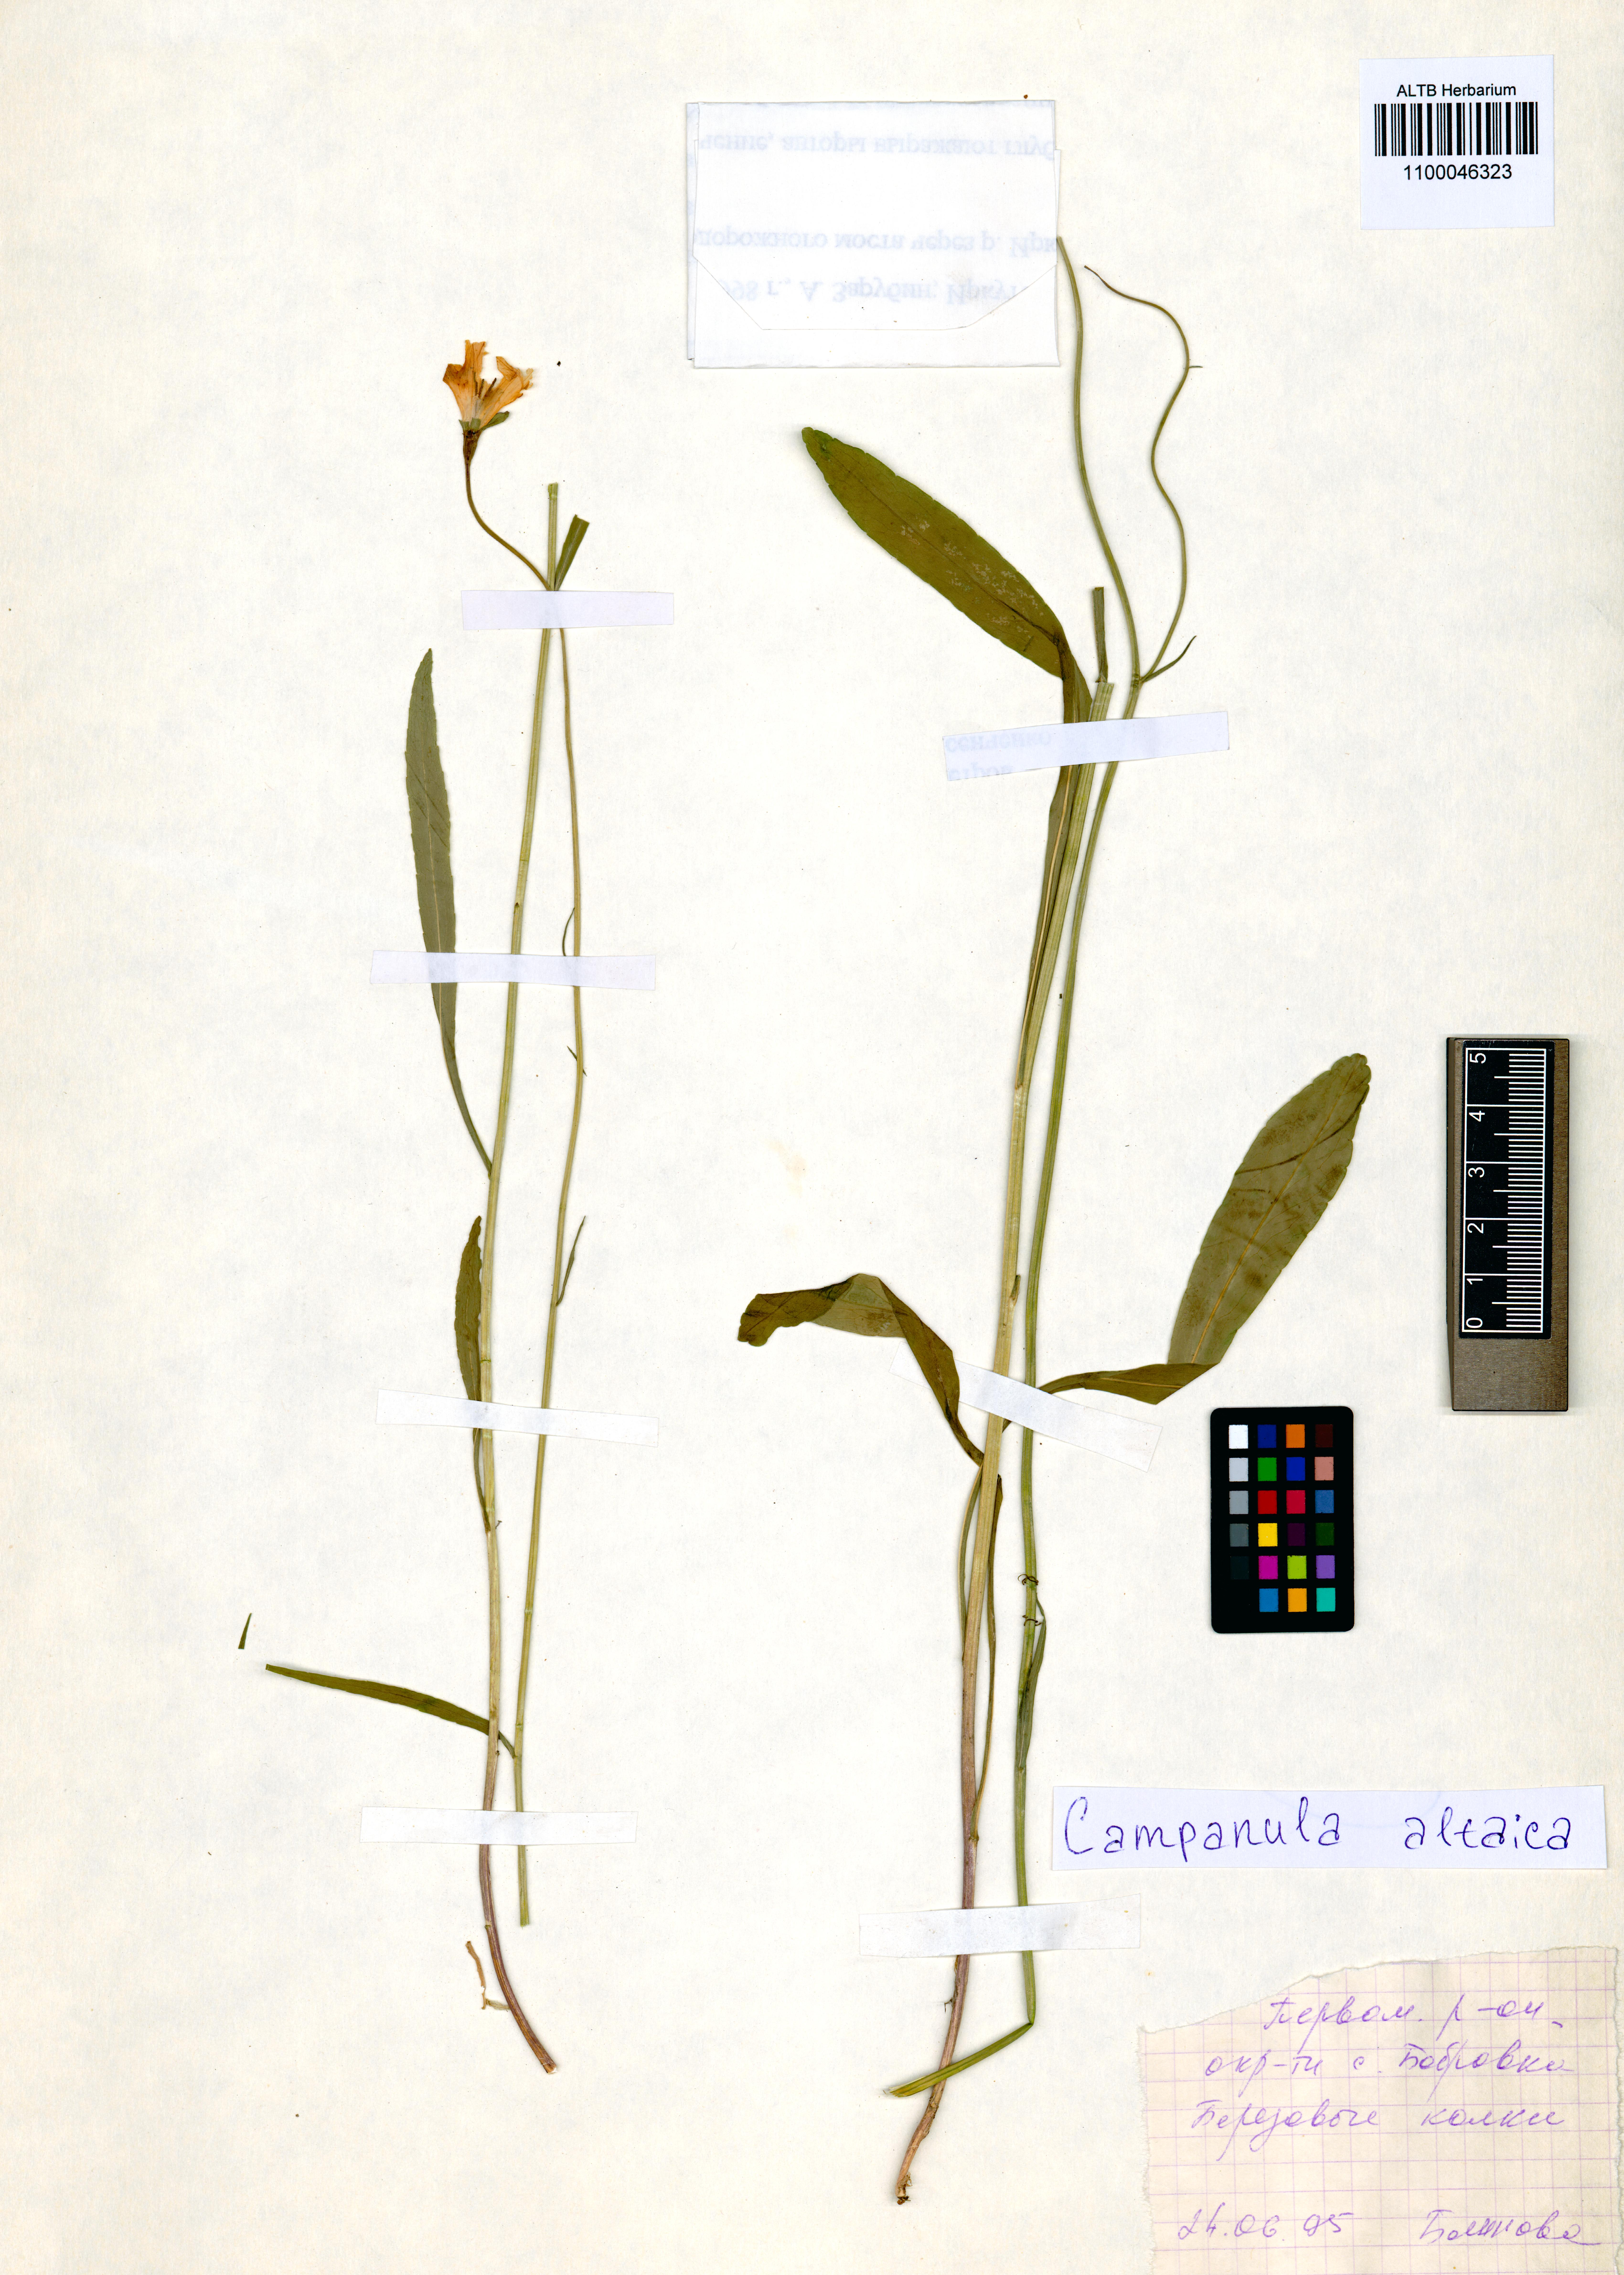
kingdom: Plantae
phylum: Tracheophyta
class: Magnoliopsida
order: Asterales
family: Campanulaceae
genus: Campanula
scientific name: Campanula stevenii
